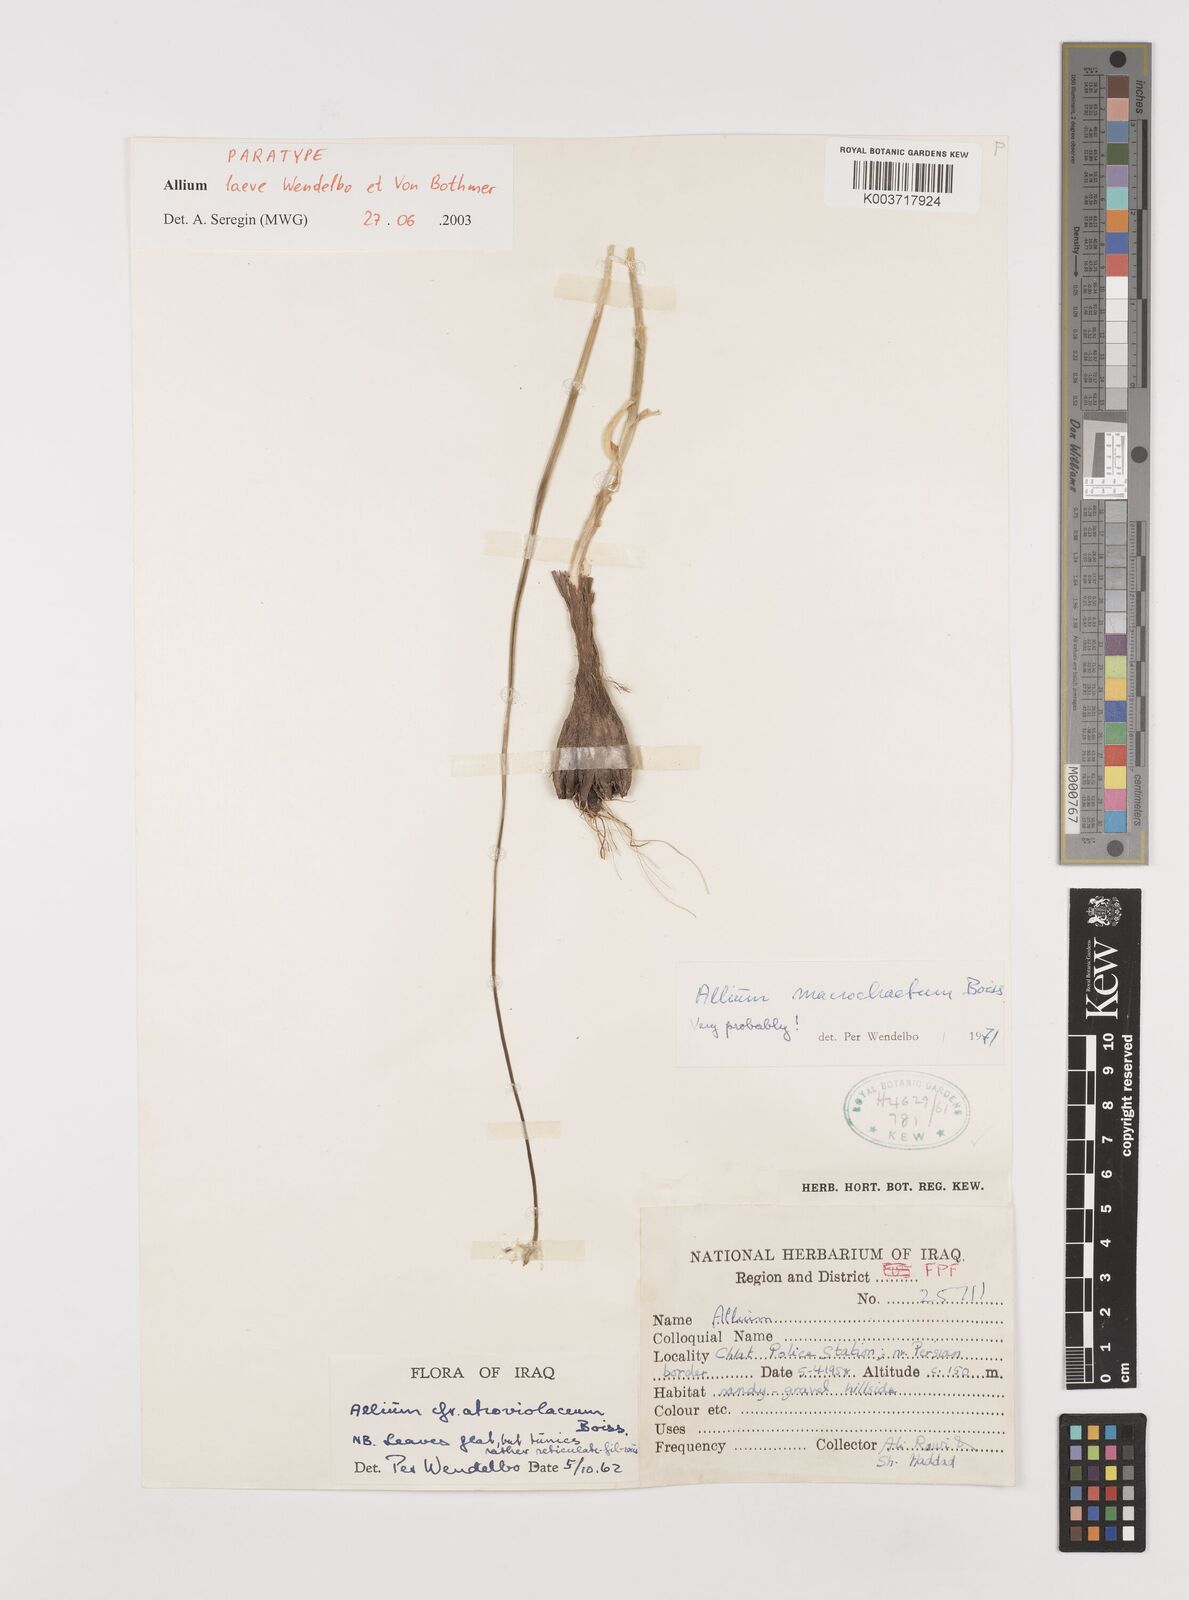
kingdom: Plantae
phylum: Tracheophyta
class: Liliopsida
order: Asparagales
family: Amaryllidaceae
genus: Allium
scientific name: Allium macrochaetum
